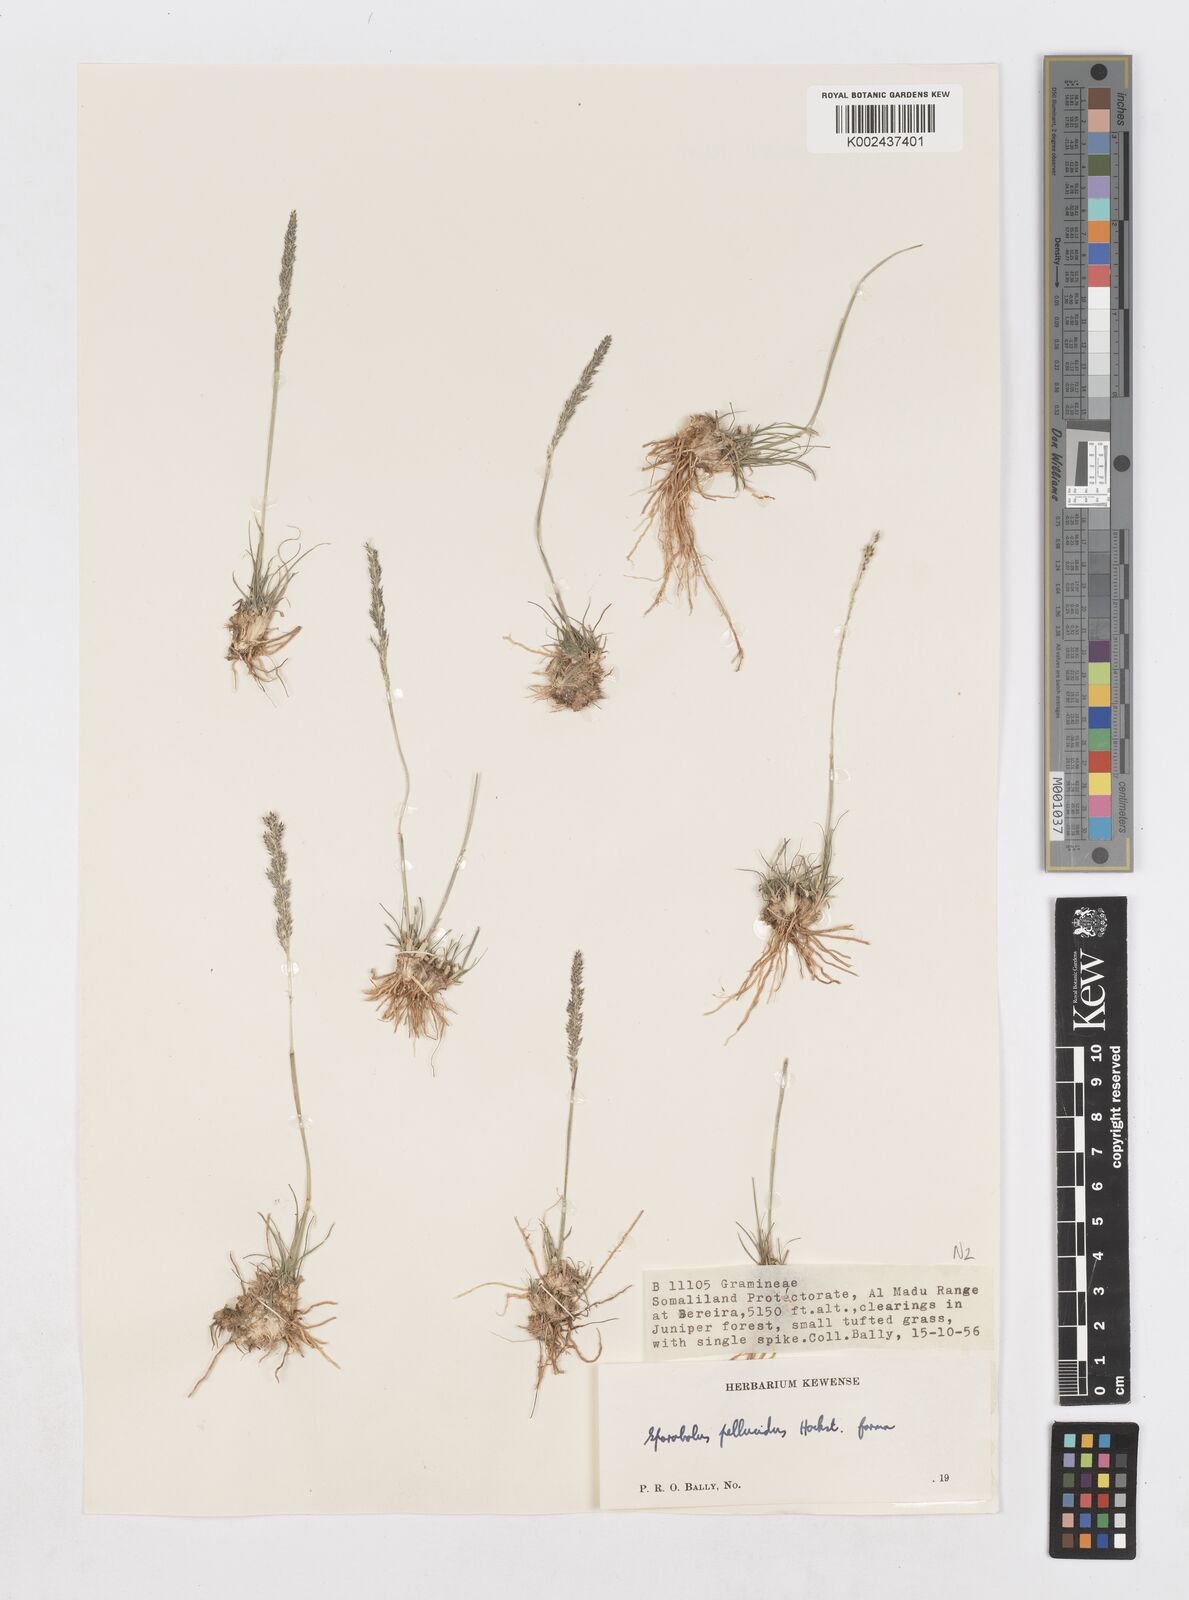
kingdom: Plantae
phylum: Tracheophyta
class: Liliopsida
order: Poales
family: Poaceae
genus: Sporobolus
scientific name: Sporobolus pellucidus
